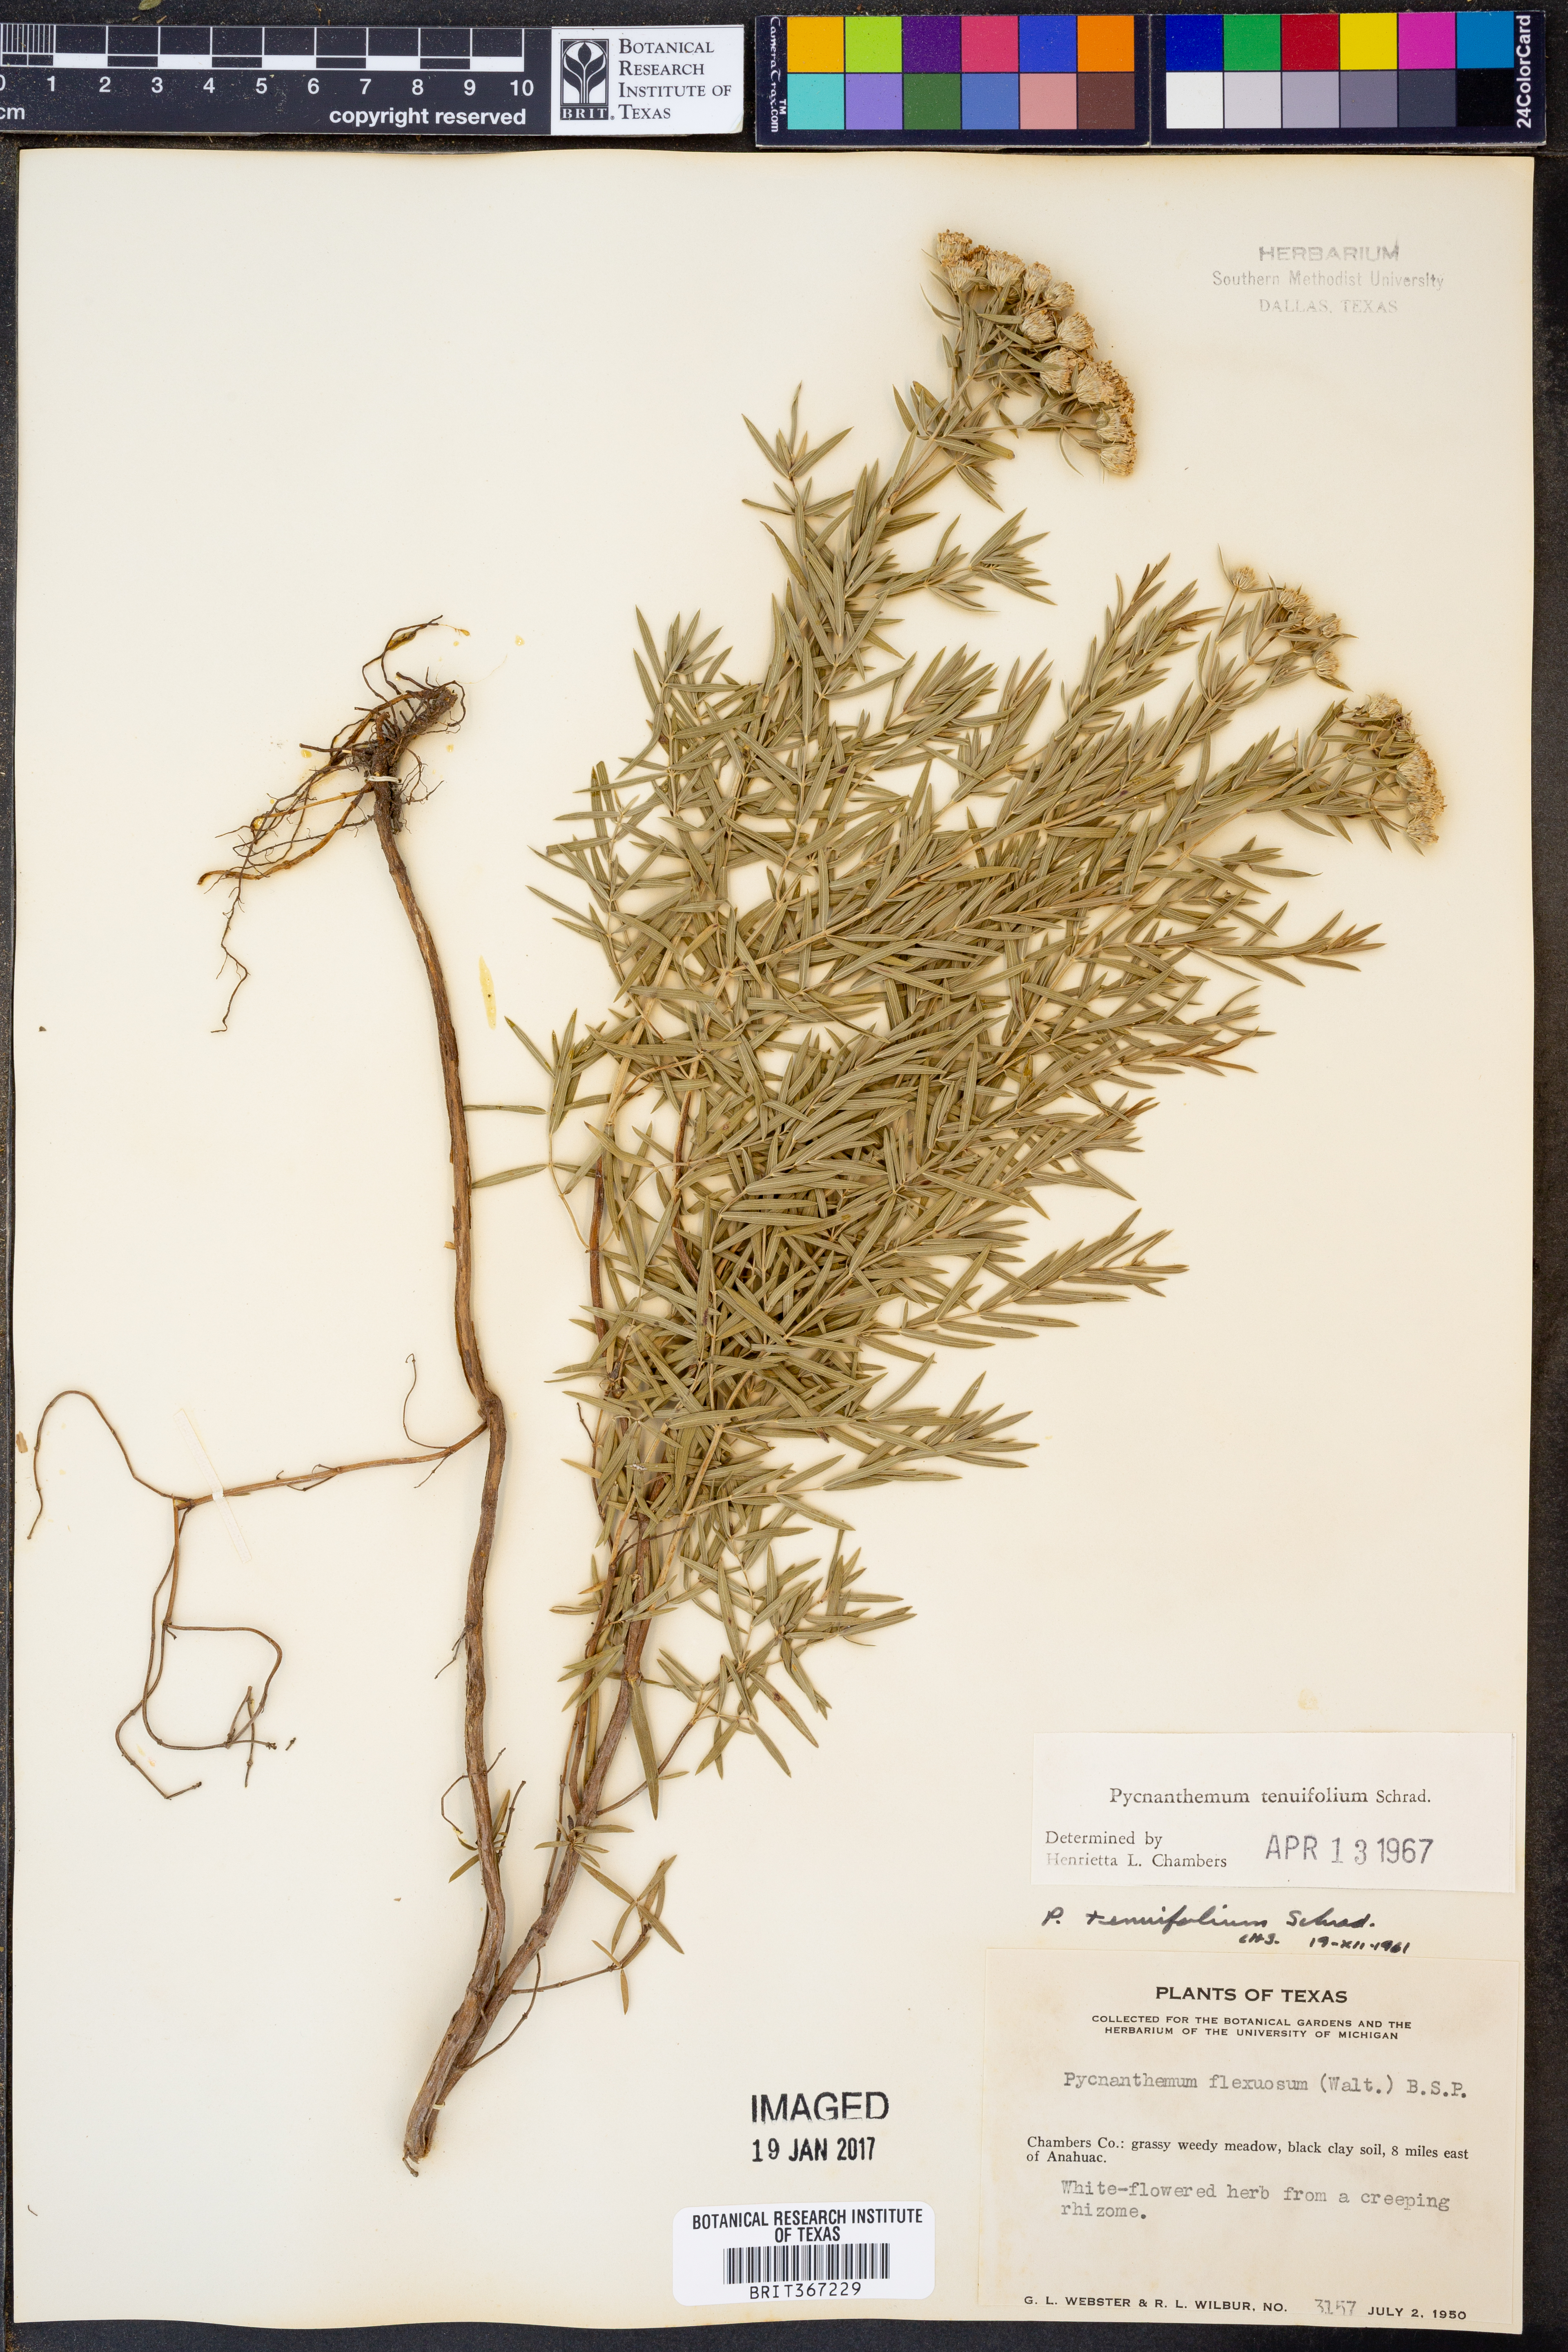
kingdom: Plantae
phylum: Tracheophyta
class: Magnoliopsida
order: Lamiales
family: Lamiaceae
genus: Pycnanthemum
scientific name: Pycnanthemum tenuifolium
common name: Narrow-leaf mountain-mint
